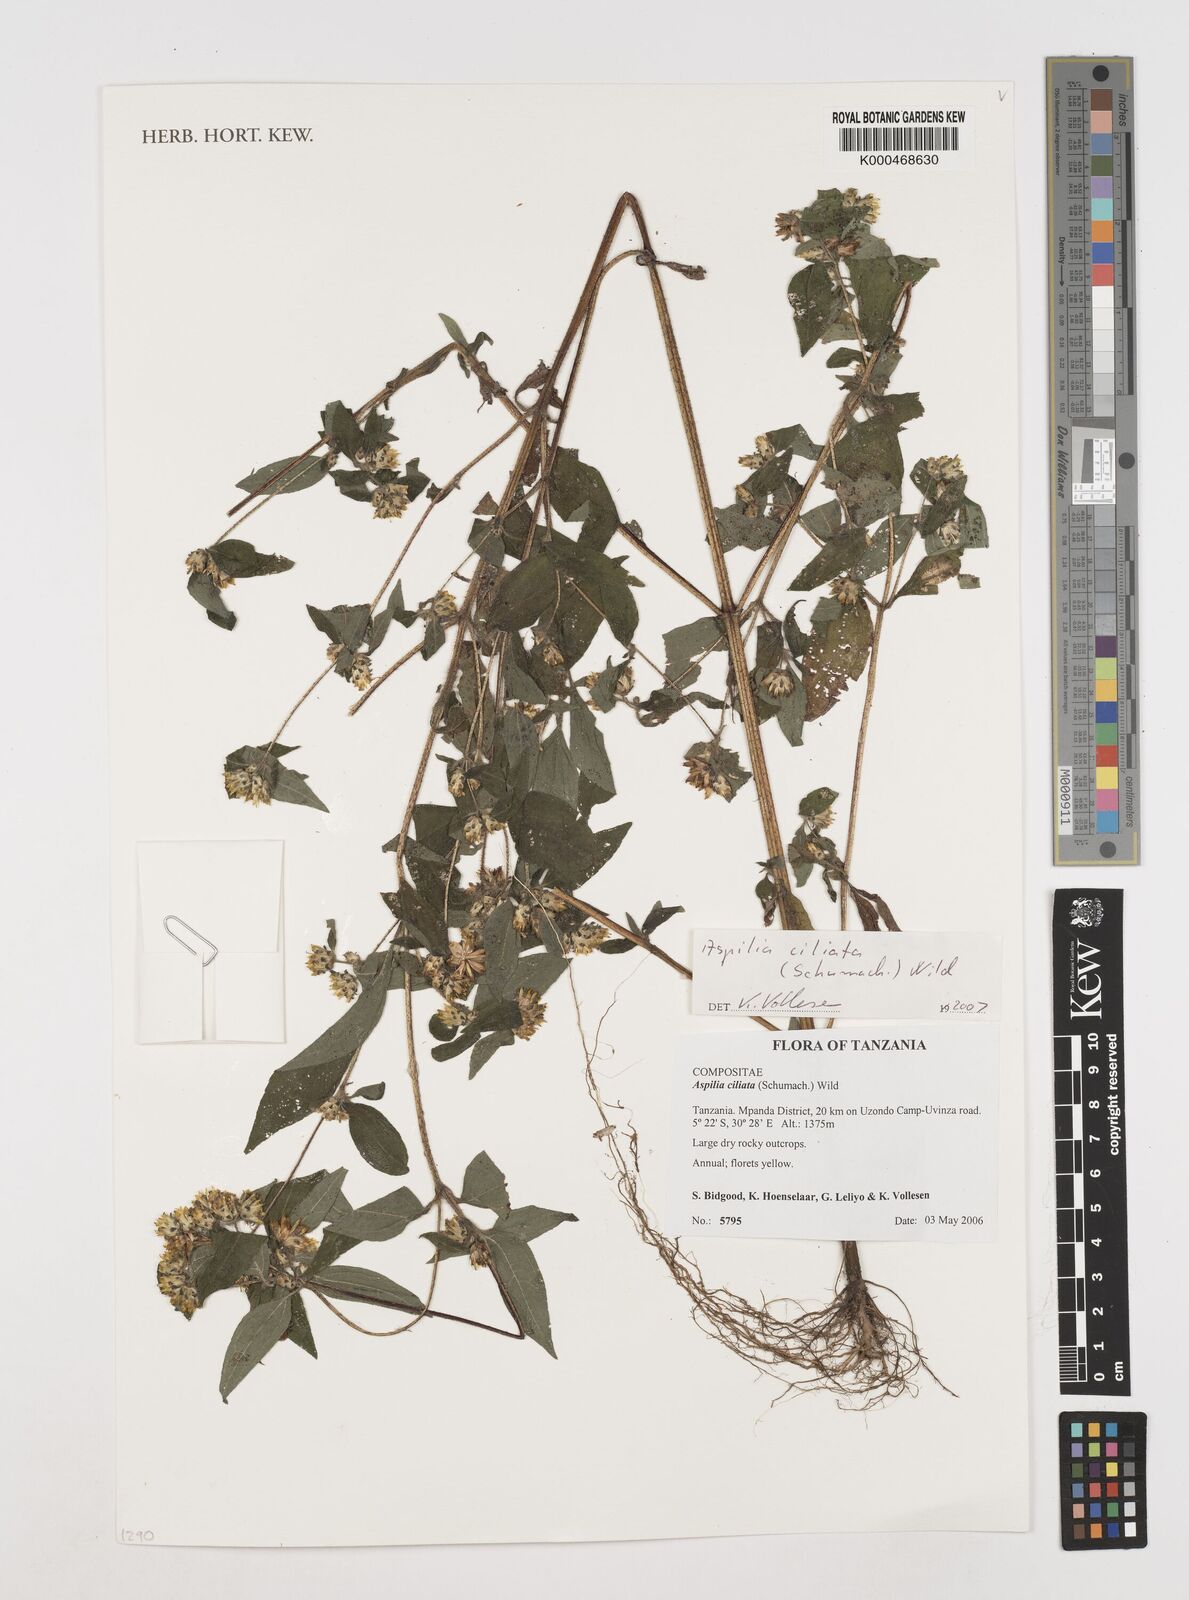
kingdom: Plantae
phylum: Tracheophyta
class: Magnoliopsida
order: Asterales
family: Asteraceae
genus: Aspilia
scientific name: Aspilia ciliata
